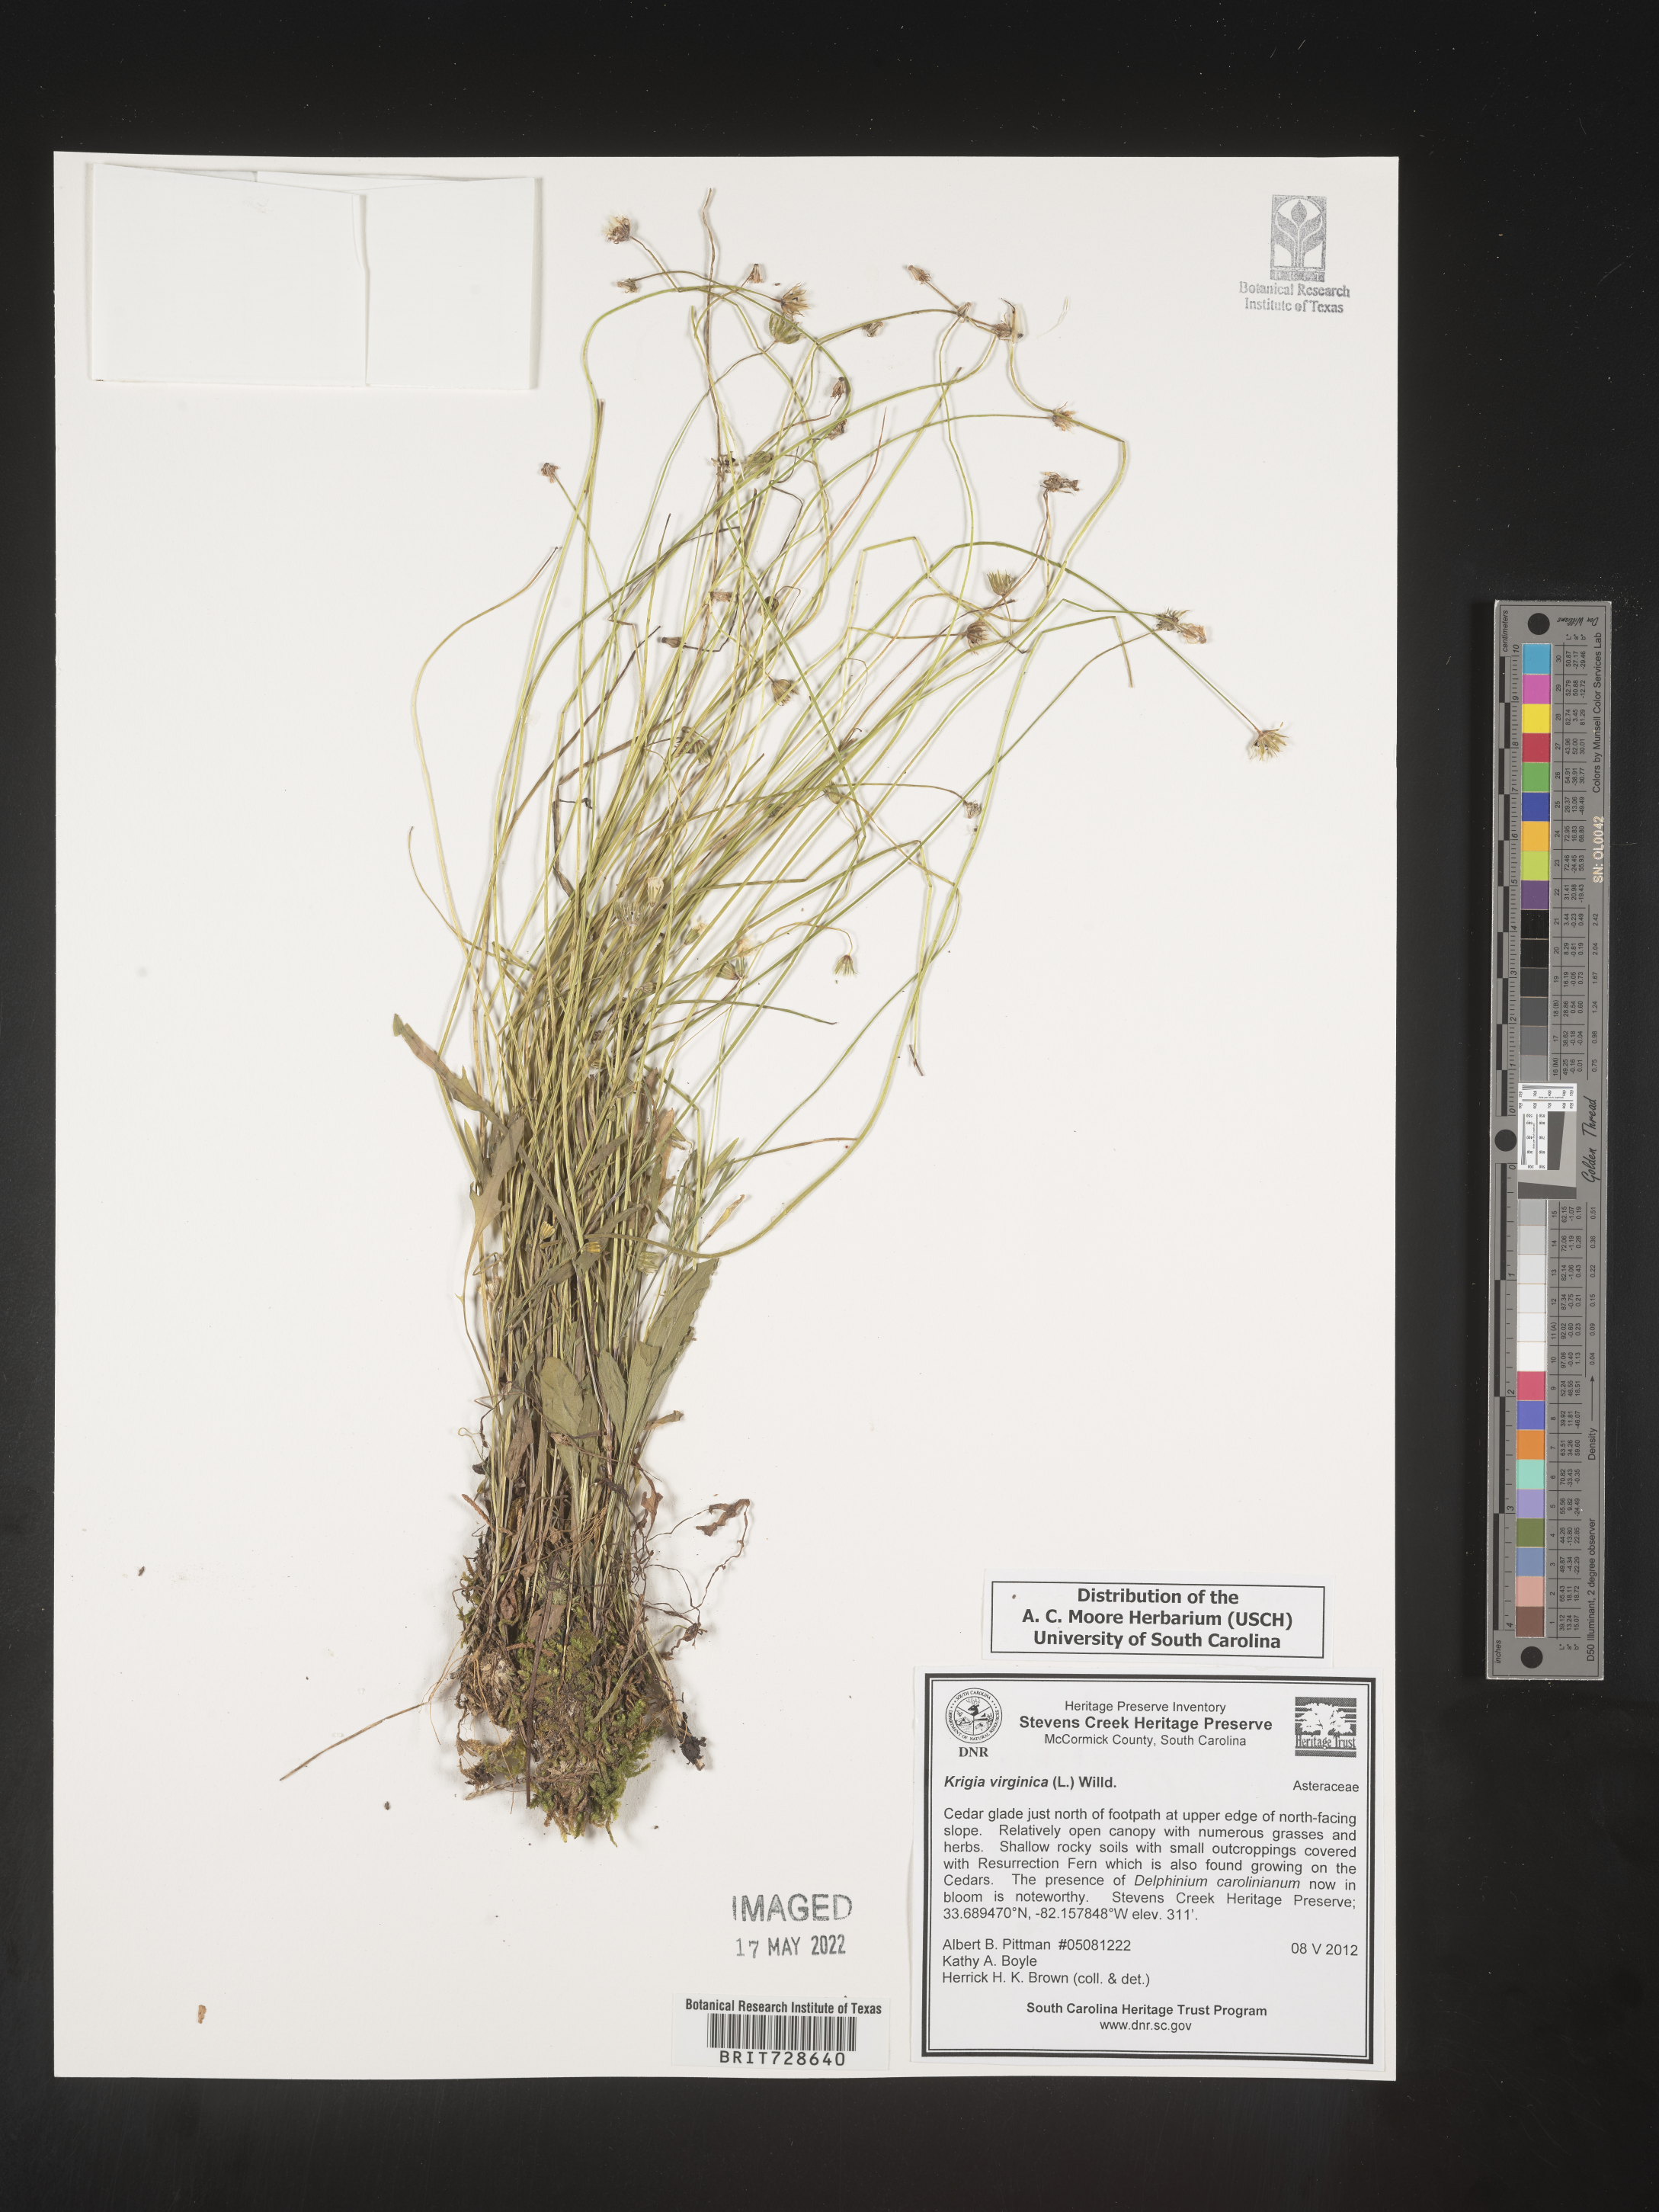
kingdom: Plantae
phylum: Tracheophyta
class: Magnoliopsida
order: Asterales
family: Asteraceae
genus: Krigia
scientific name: Krigia virginica
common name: Virginia dwarf-dandelion
